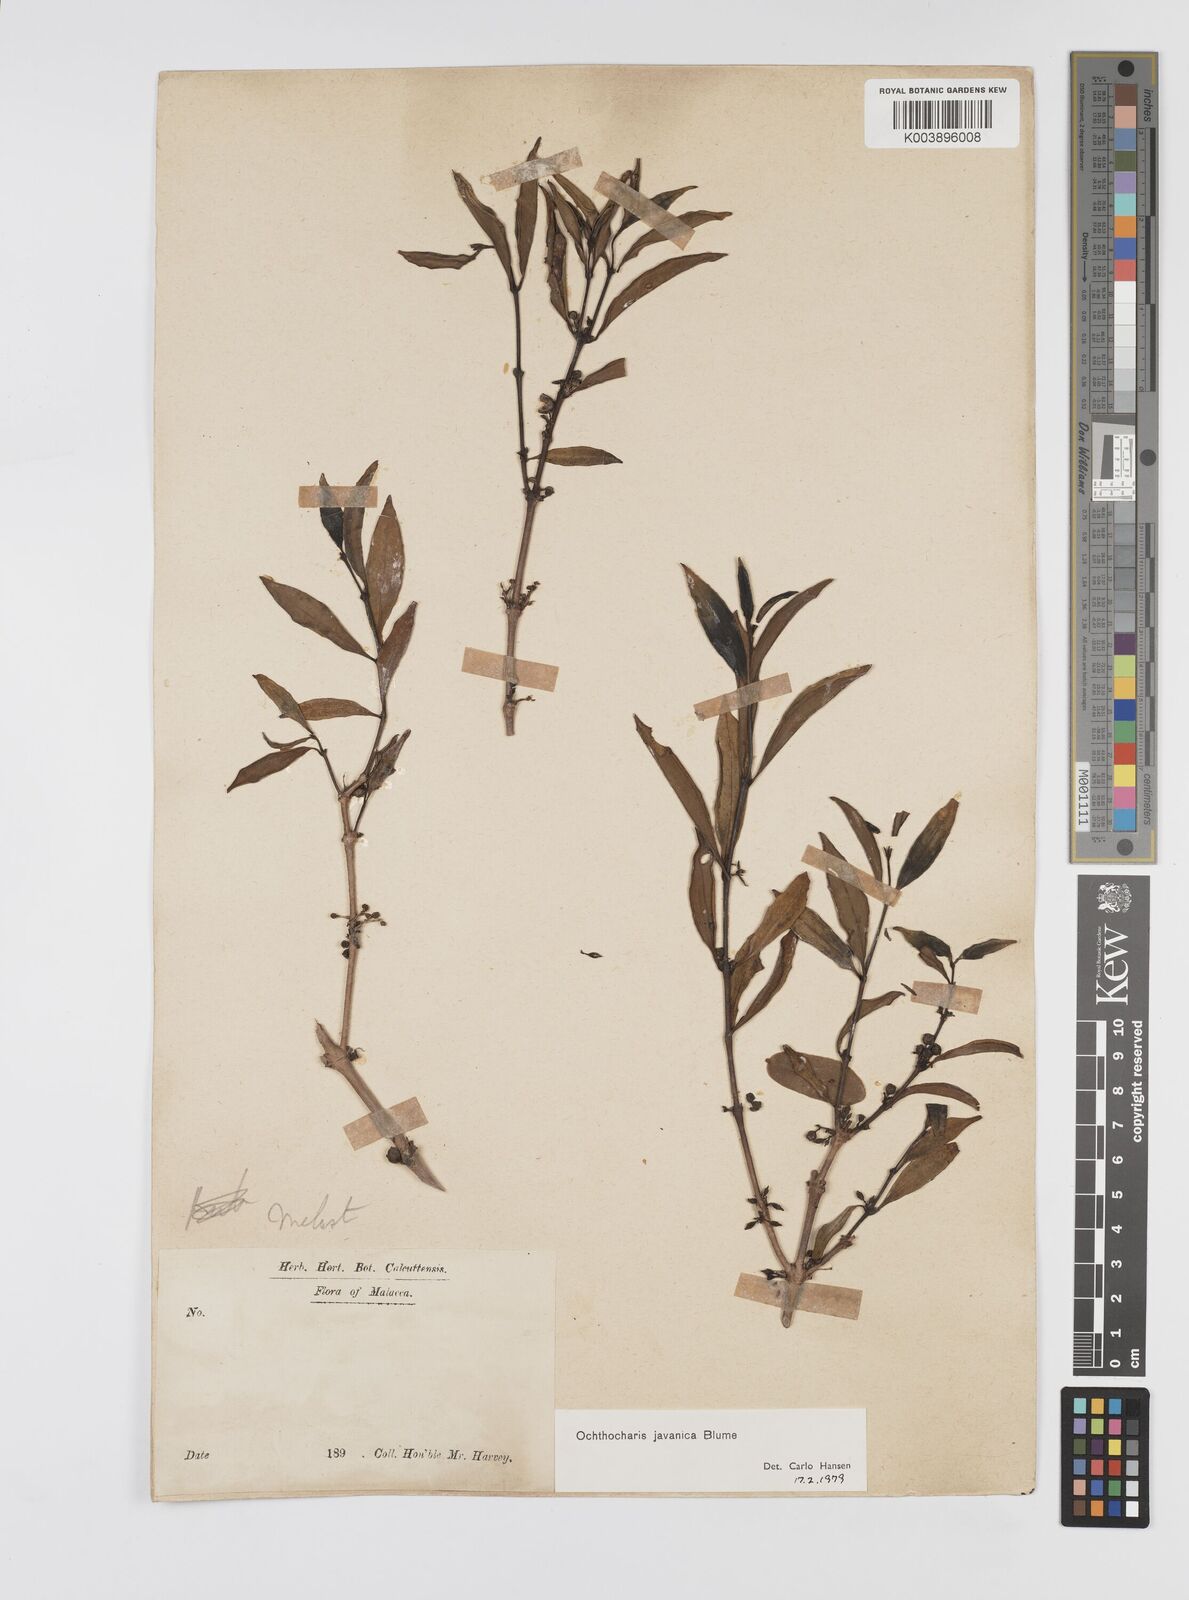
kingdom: Plantae
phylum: Tracheophyta
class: Magnoliopsida
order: Myrtales
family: Melastomataceae
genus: Ochthocharis
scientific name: Ochthocharis javanica
